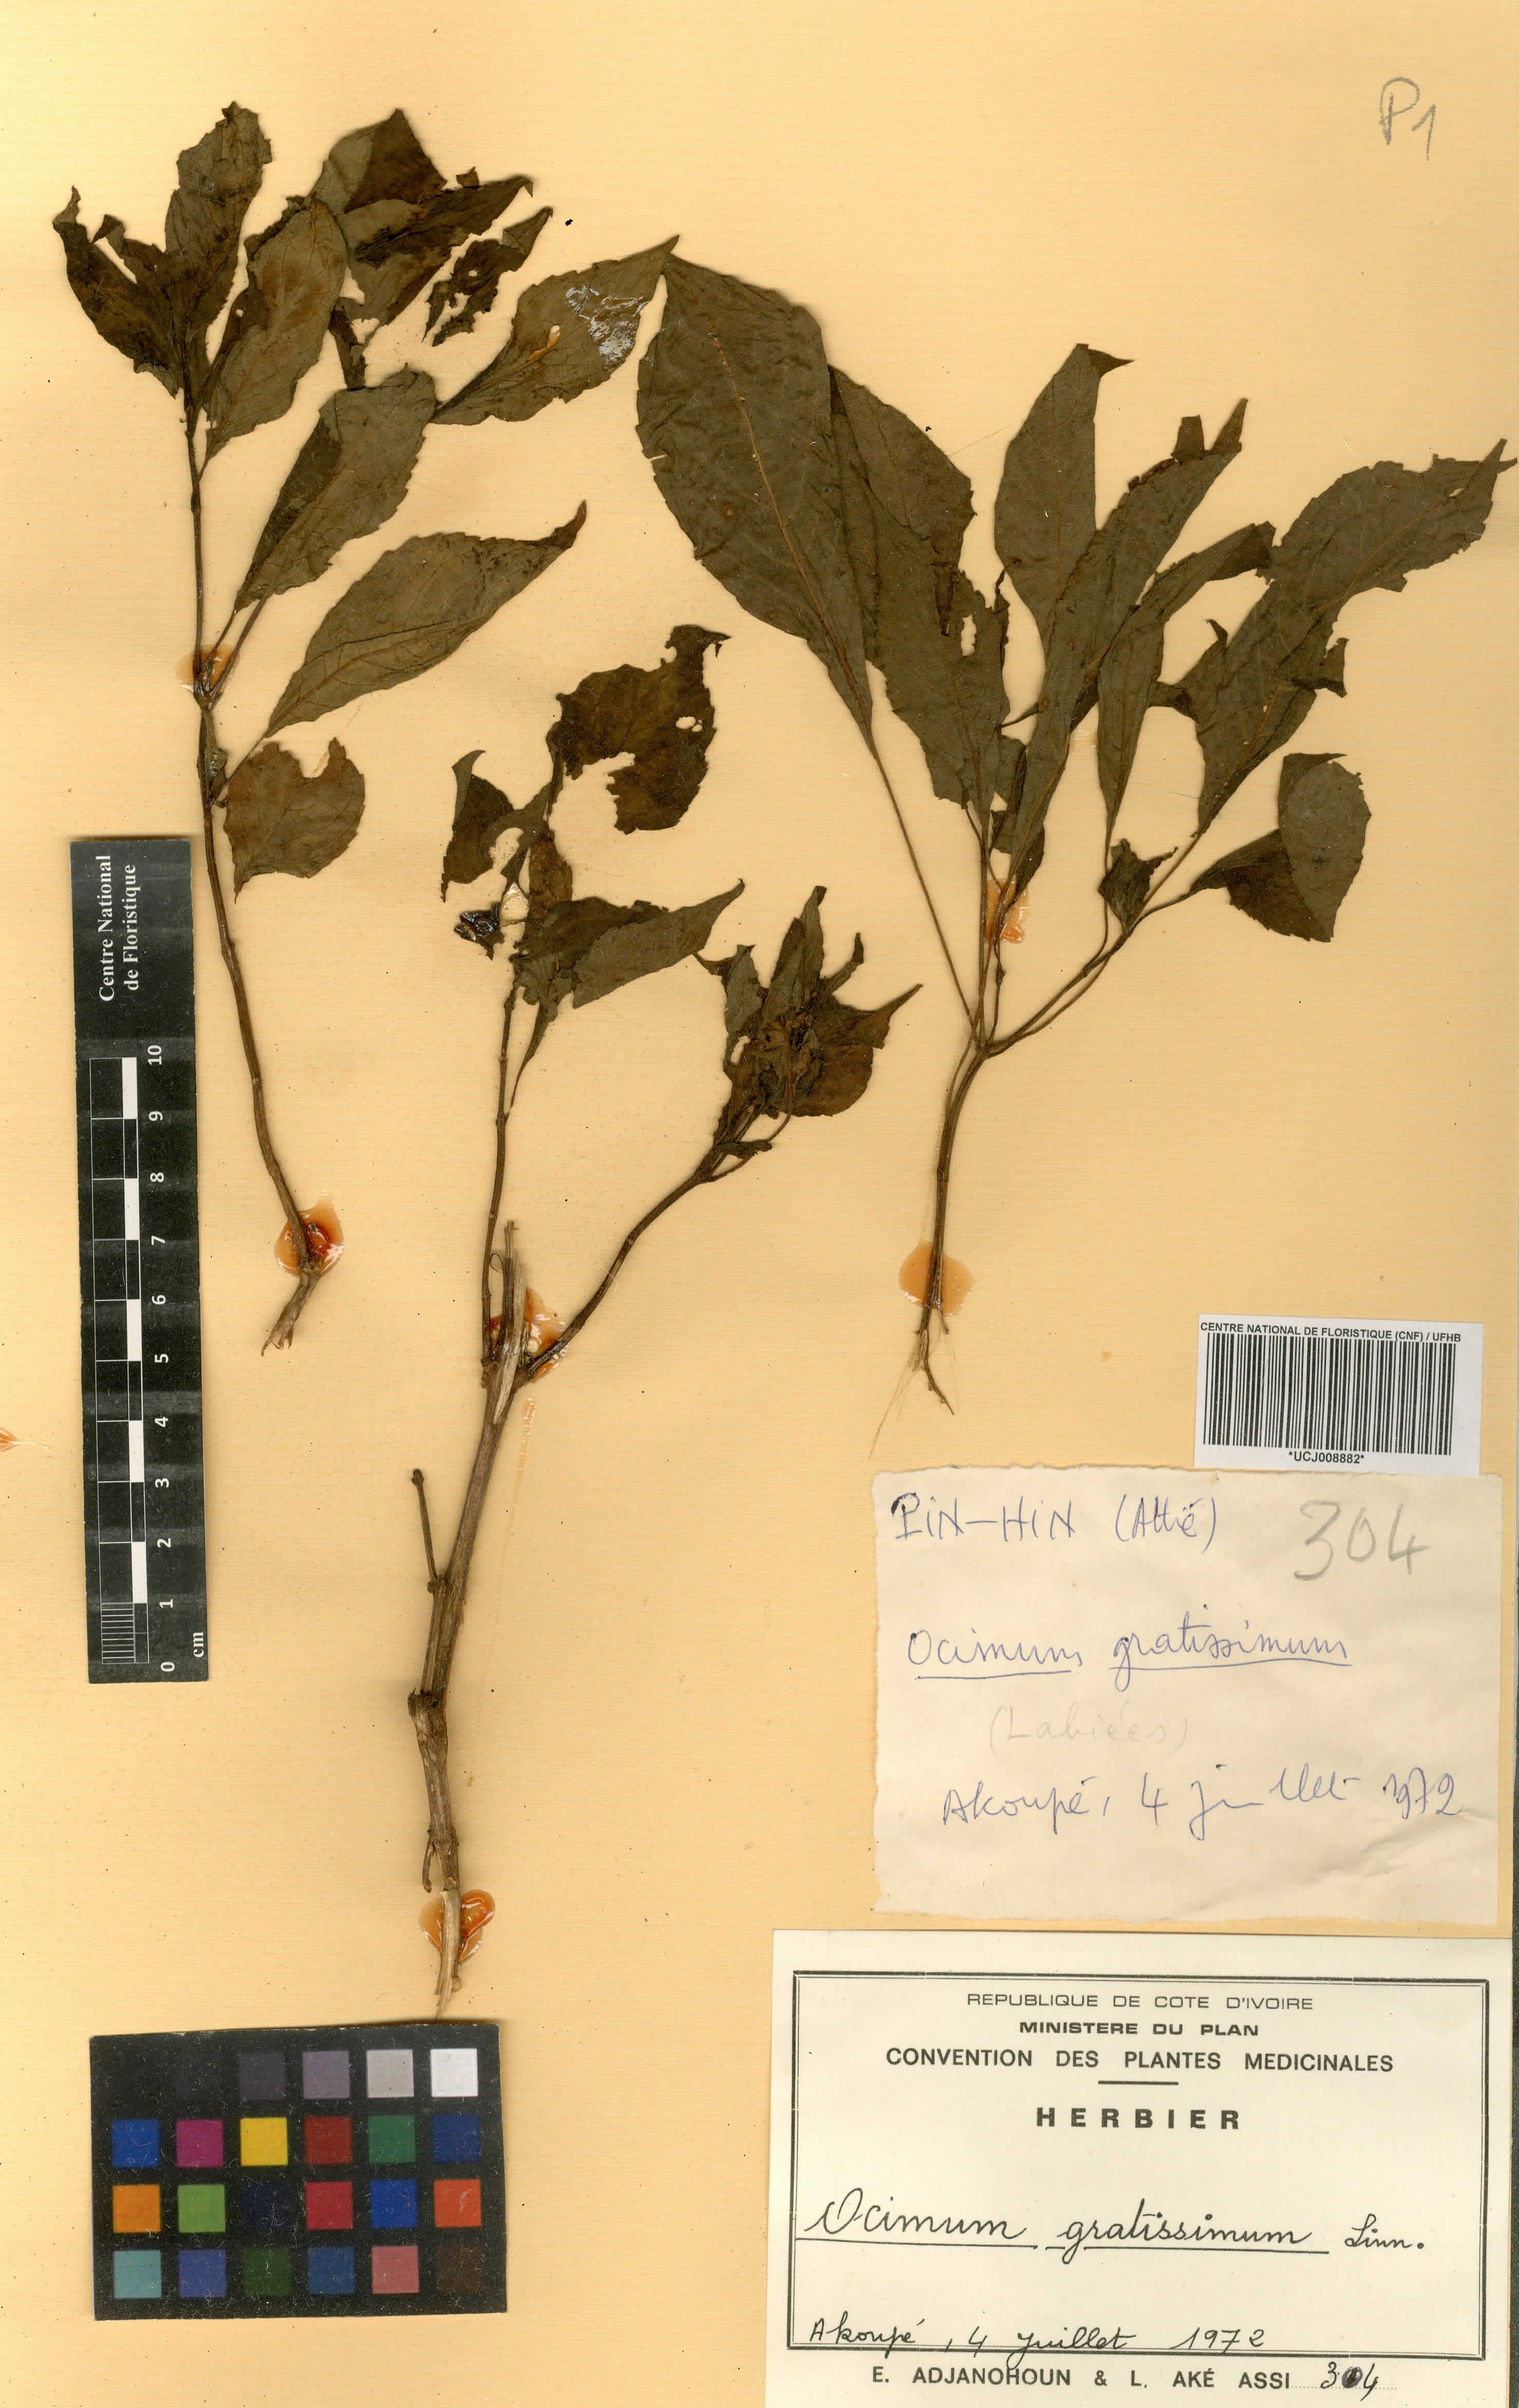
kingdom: Plantae
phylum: Tracheophyta
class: Magnoliopsida
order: Lamiales
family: Lamiaceae
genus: Ocimum
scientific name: Ocimum gratissimum
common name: African basil
